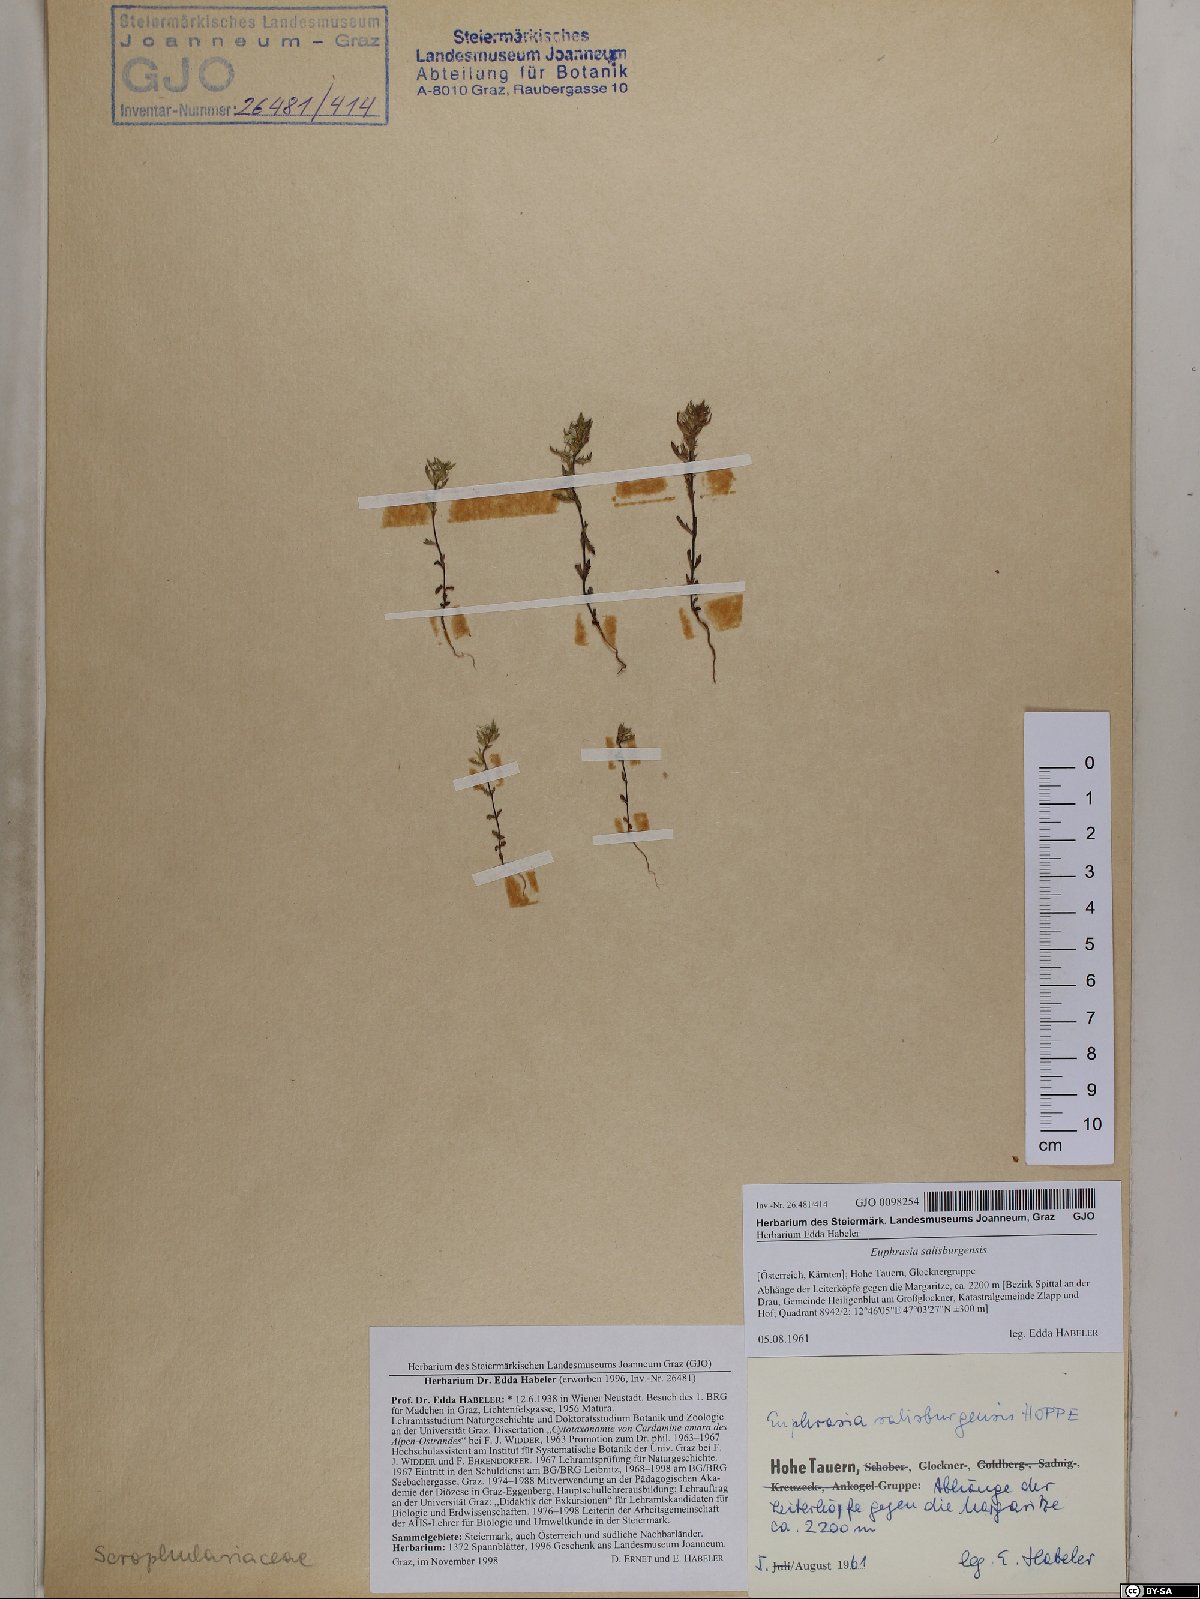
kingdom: Plantae
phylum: Tracheophyta
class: Magnoliopsida
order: Lamiales
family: Orobanchaceae
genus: Euphrasia
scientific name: Euphrasia salisburgensis
